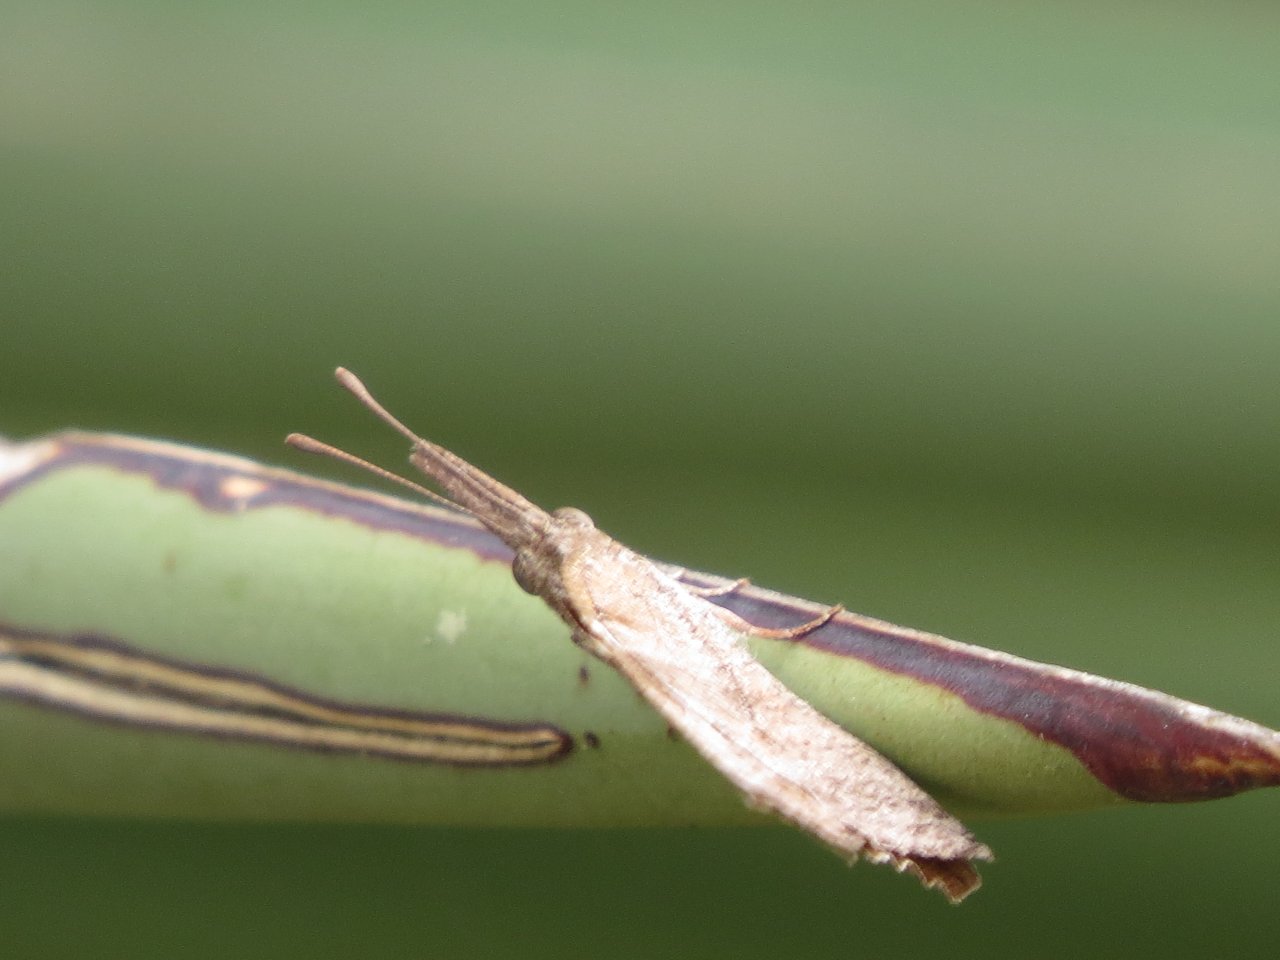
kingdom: Animalia
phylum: Arthropoda
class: Insecta
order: Lepidoptera
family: Nymphalidae
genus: Libytheana
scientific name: Libytheana carinenta
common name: American Snout
